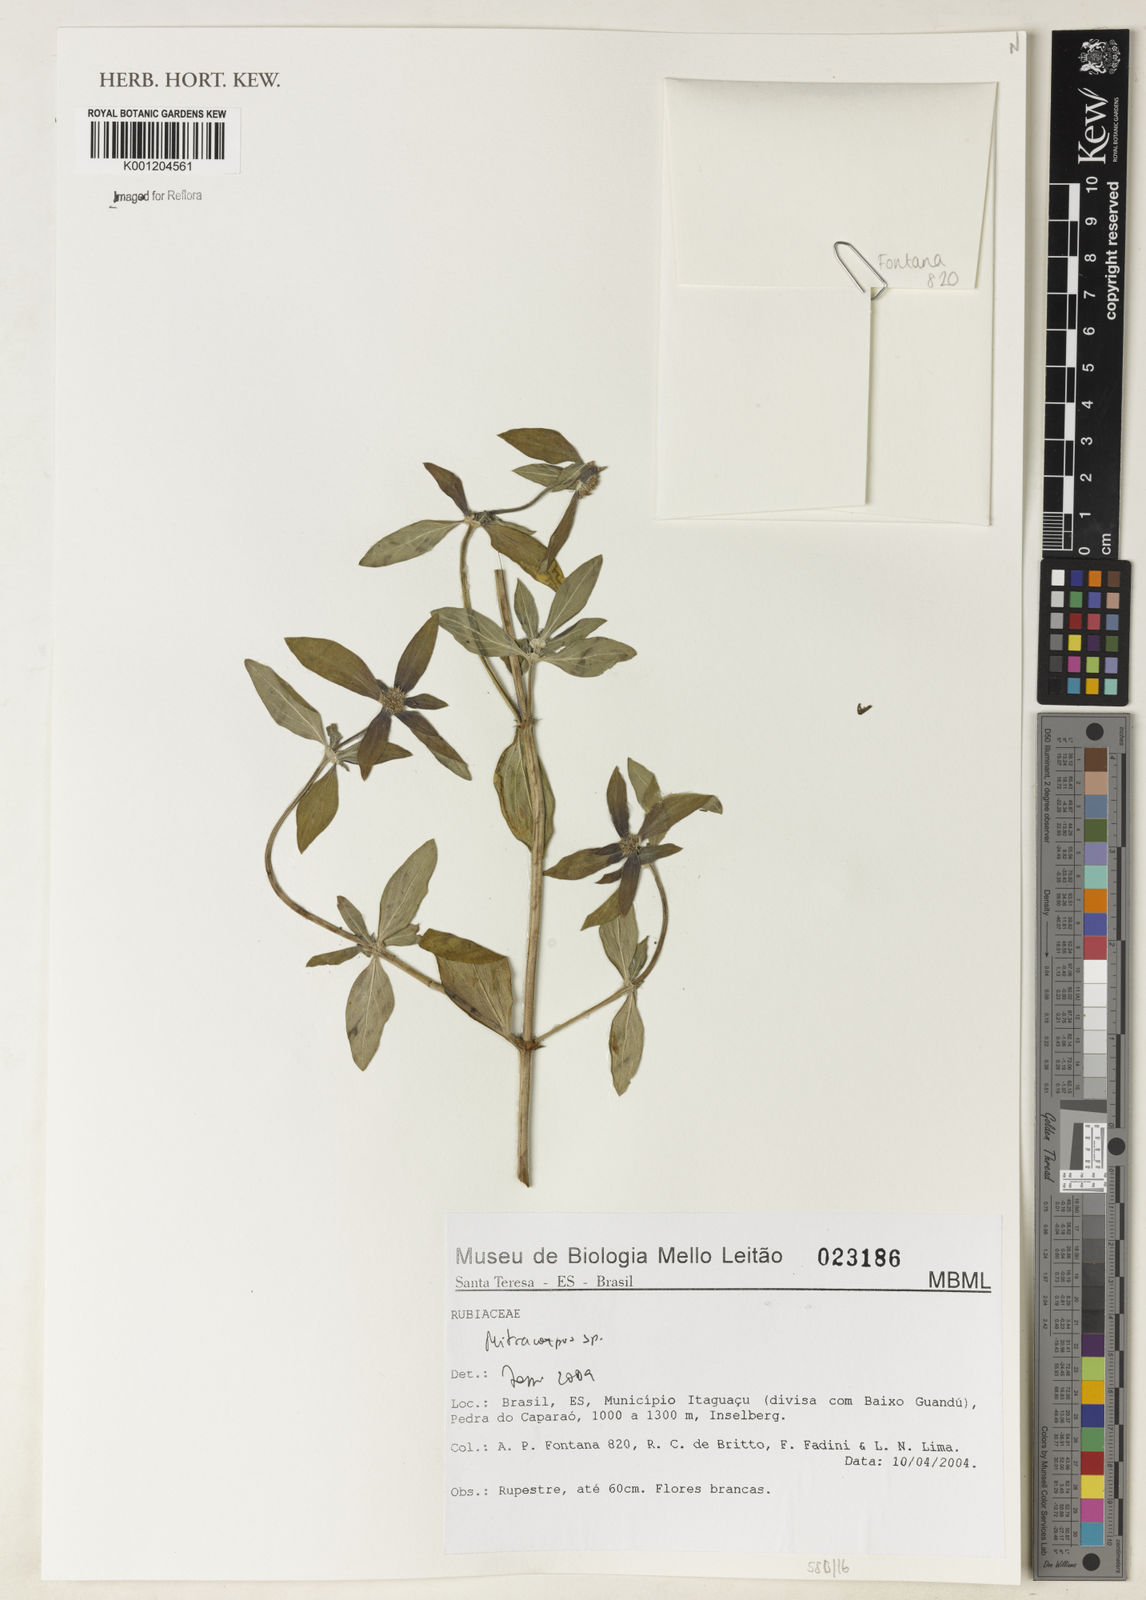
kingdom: Plantae
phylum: Tracheophyta
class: Magnoliopsida
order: Gentianales
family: Rubiaceae
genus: Mitracarpus
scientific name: Mitracarpus
